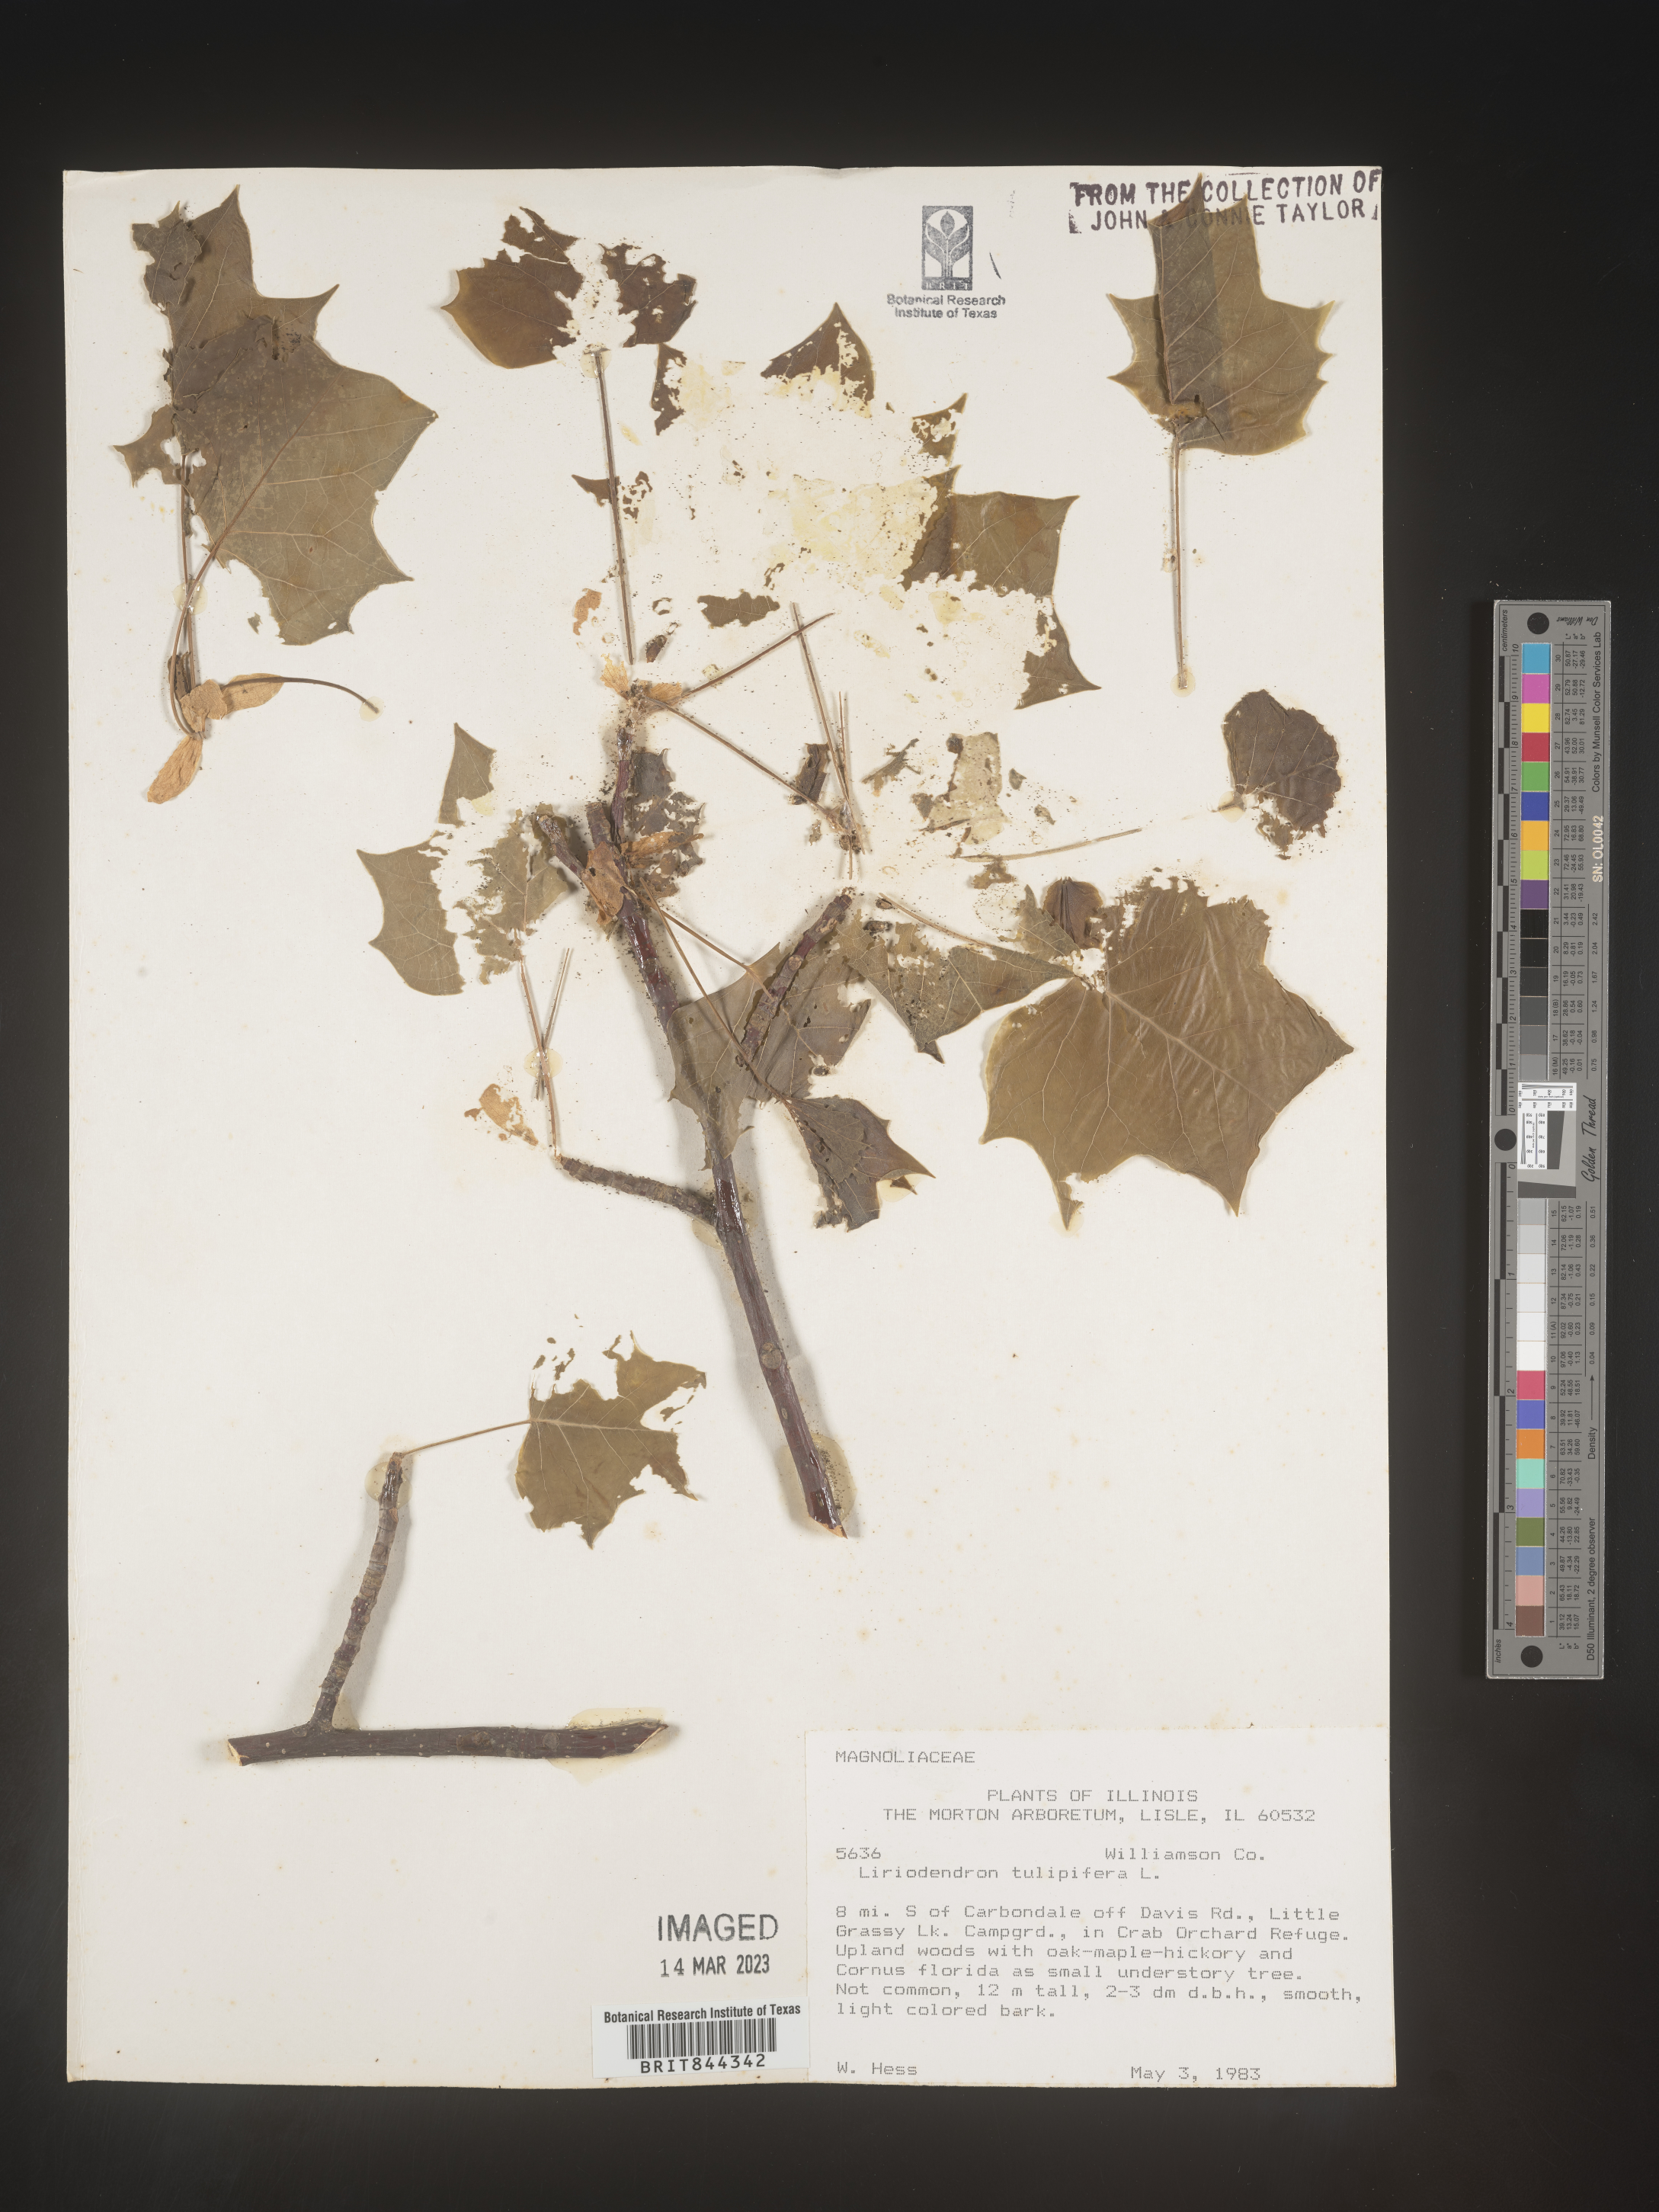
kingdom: Plantae
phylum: Tracheophyta
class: Magnoliopsida
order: Magnoliales
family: Magnoliaceae
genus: Liriodendron
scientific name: Liriodendron tulipifera
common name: Tulip tree
